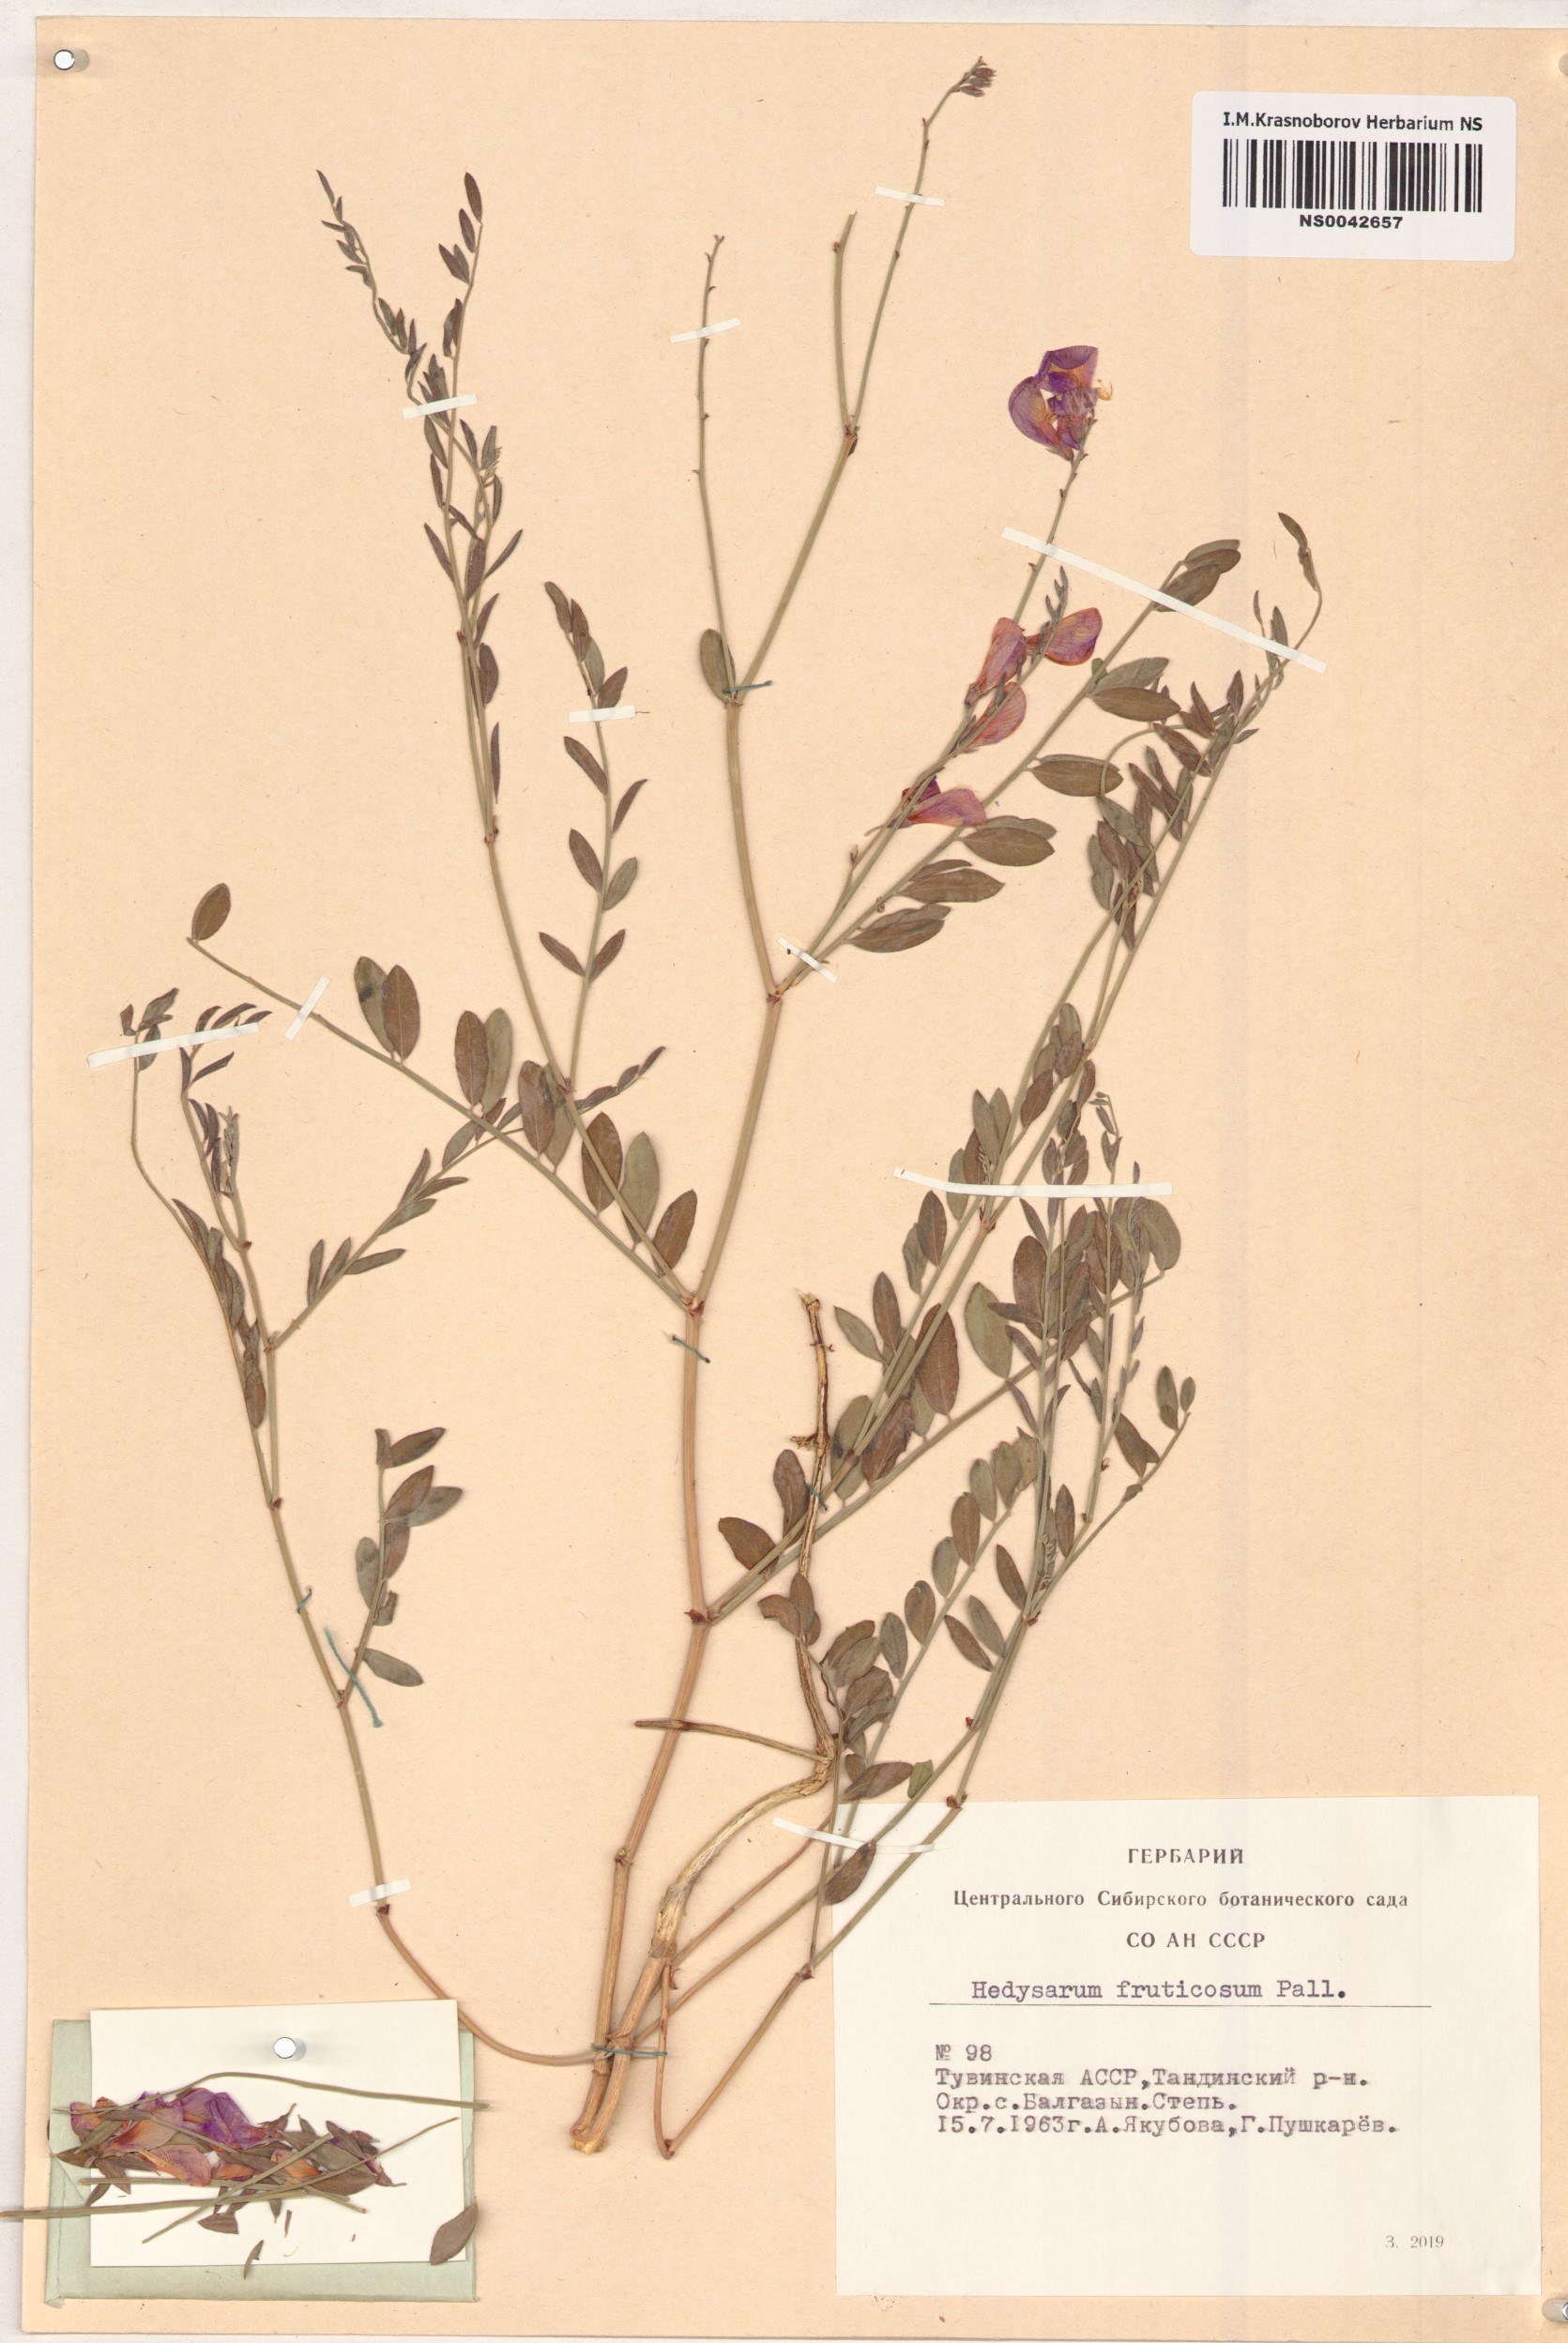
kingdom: Plantae
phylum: Tracheophyta
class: Magnoliopsida
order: Fabales
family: Fabaceae
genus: Corethrodendron
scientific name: Corethrodendron fruticosum
